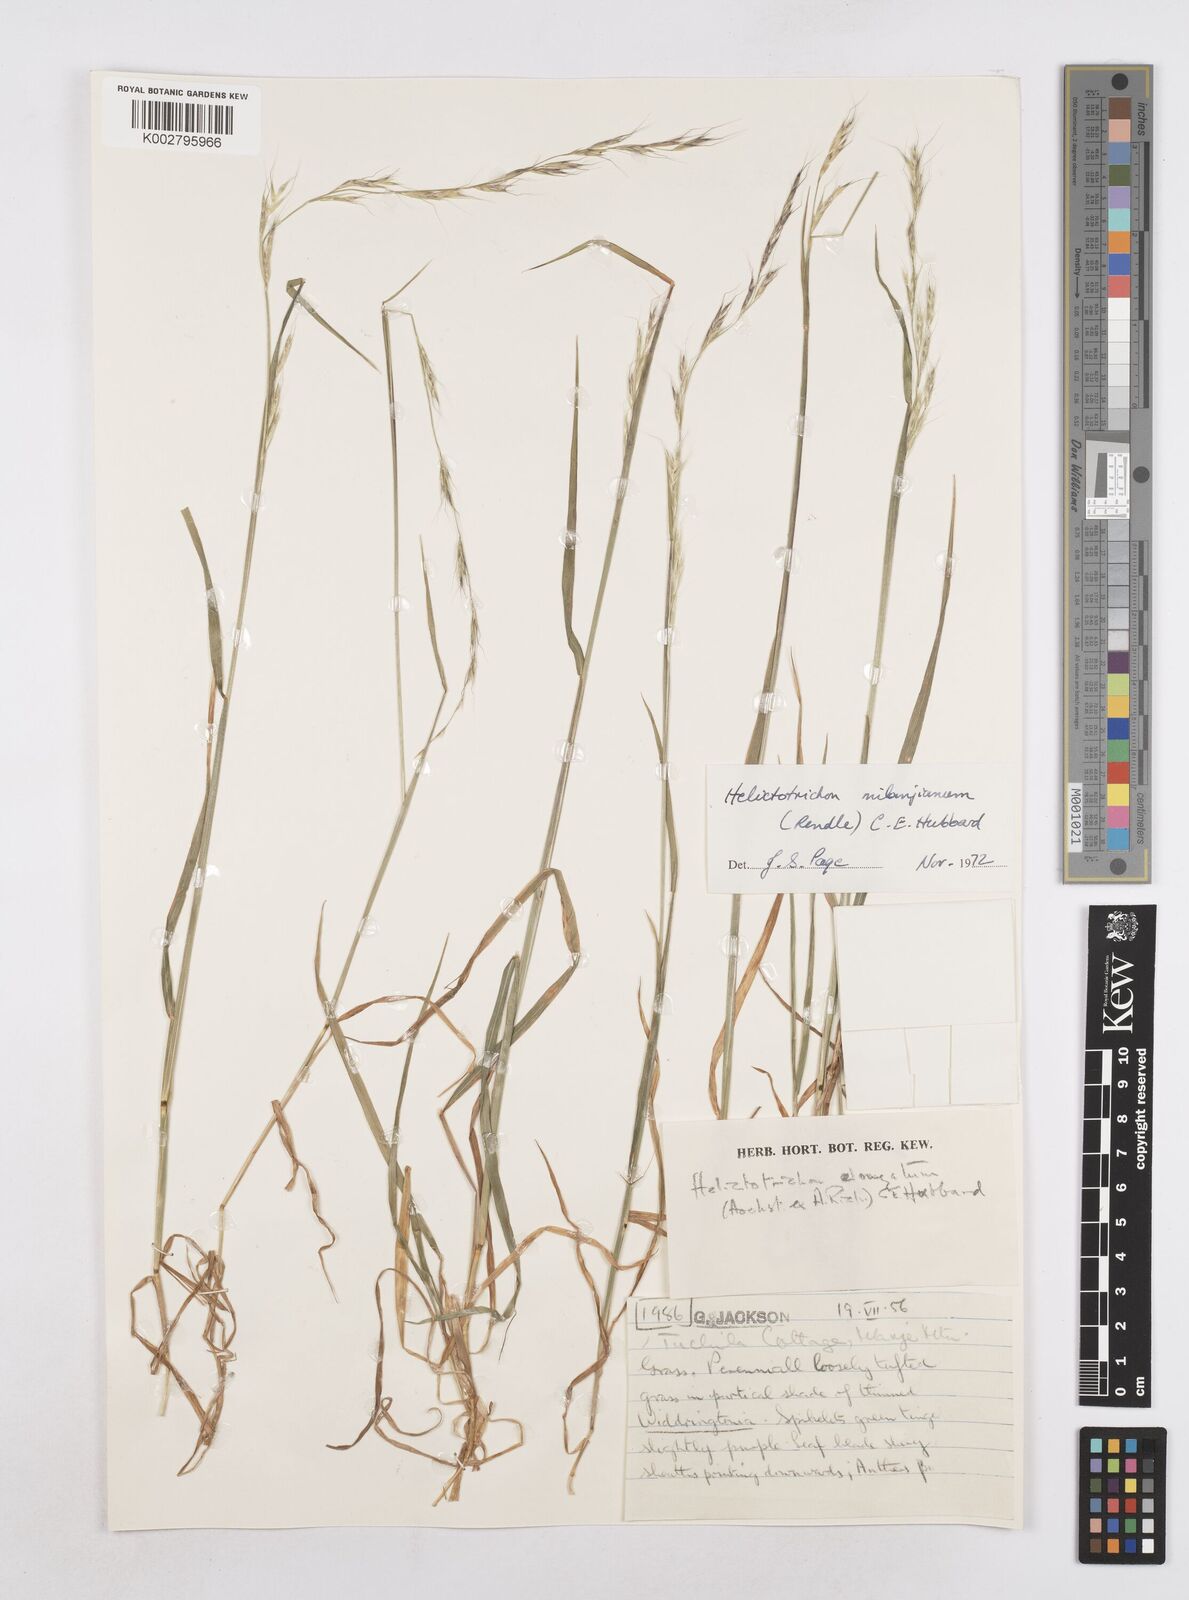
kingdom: Plantae
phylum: Tracheophyta
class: Liliopsida
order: Poales
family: Poaceae
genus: Trisetopsis
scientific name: Trisetopsis milanjiana
